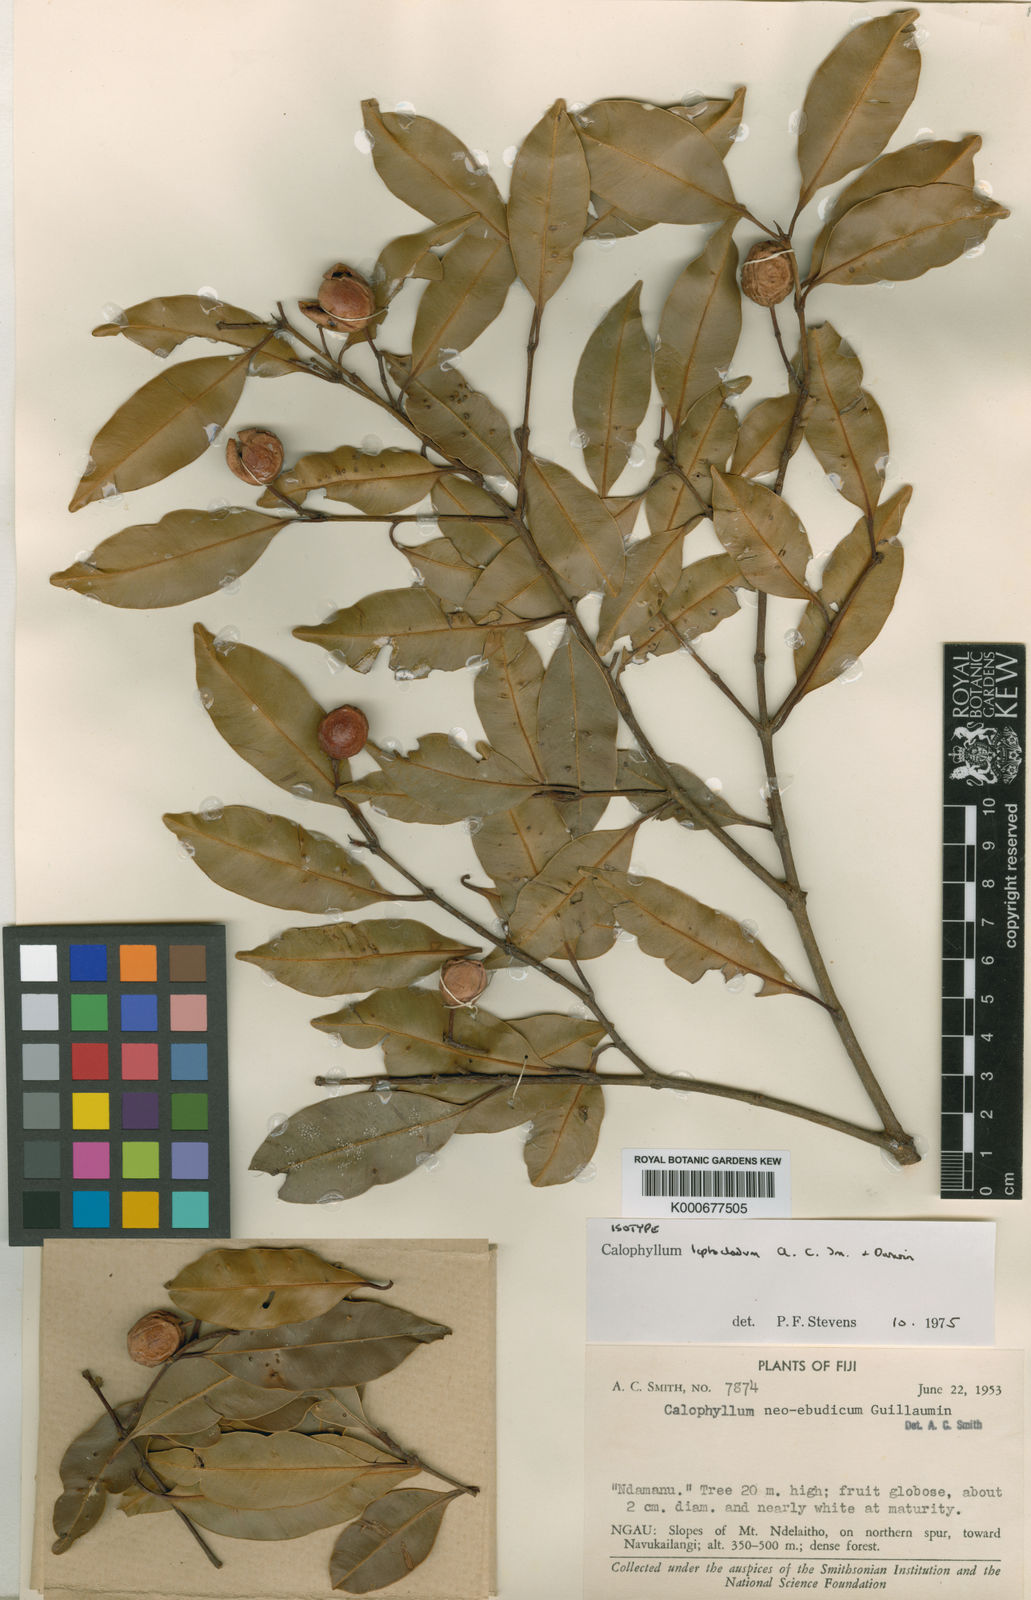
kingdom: Plantae
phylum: Tracheophyta
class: Magnoliopsida
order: Malpighiales
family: Calophyllaceae
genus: Calophyllum
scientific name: Calophyllum leptocladum
